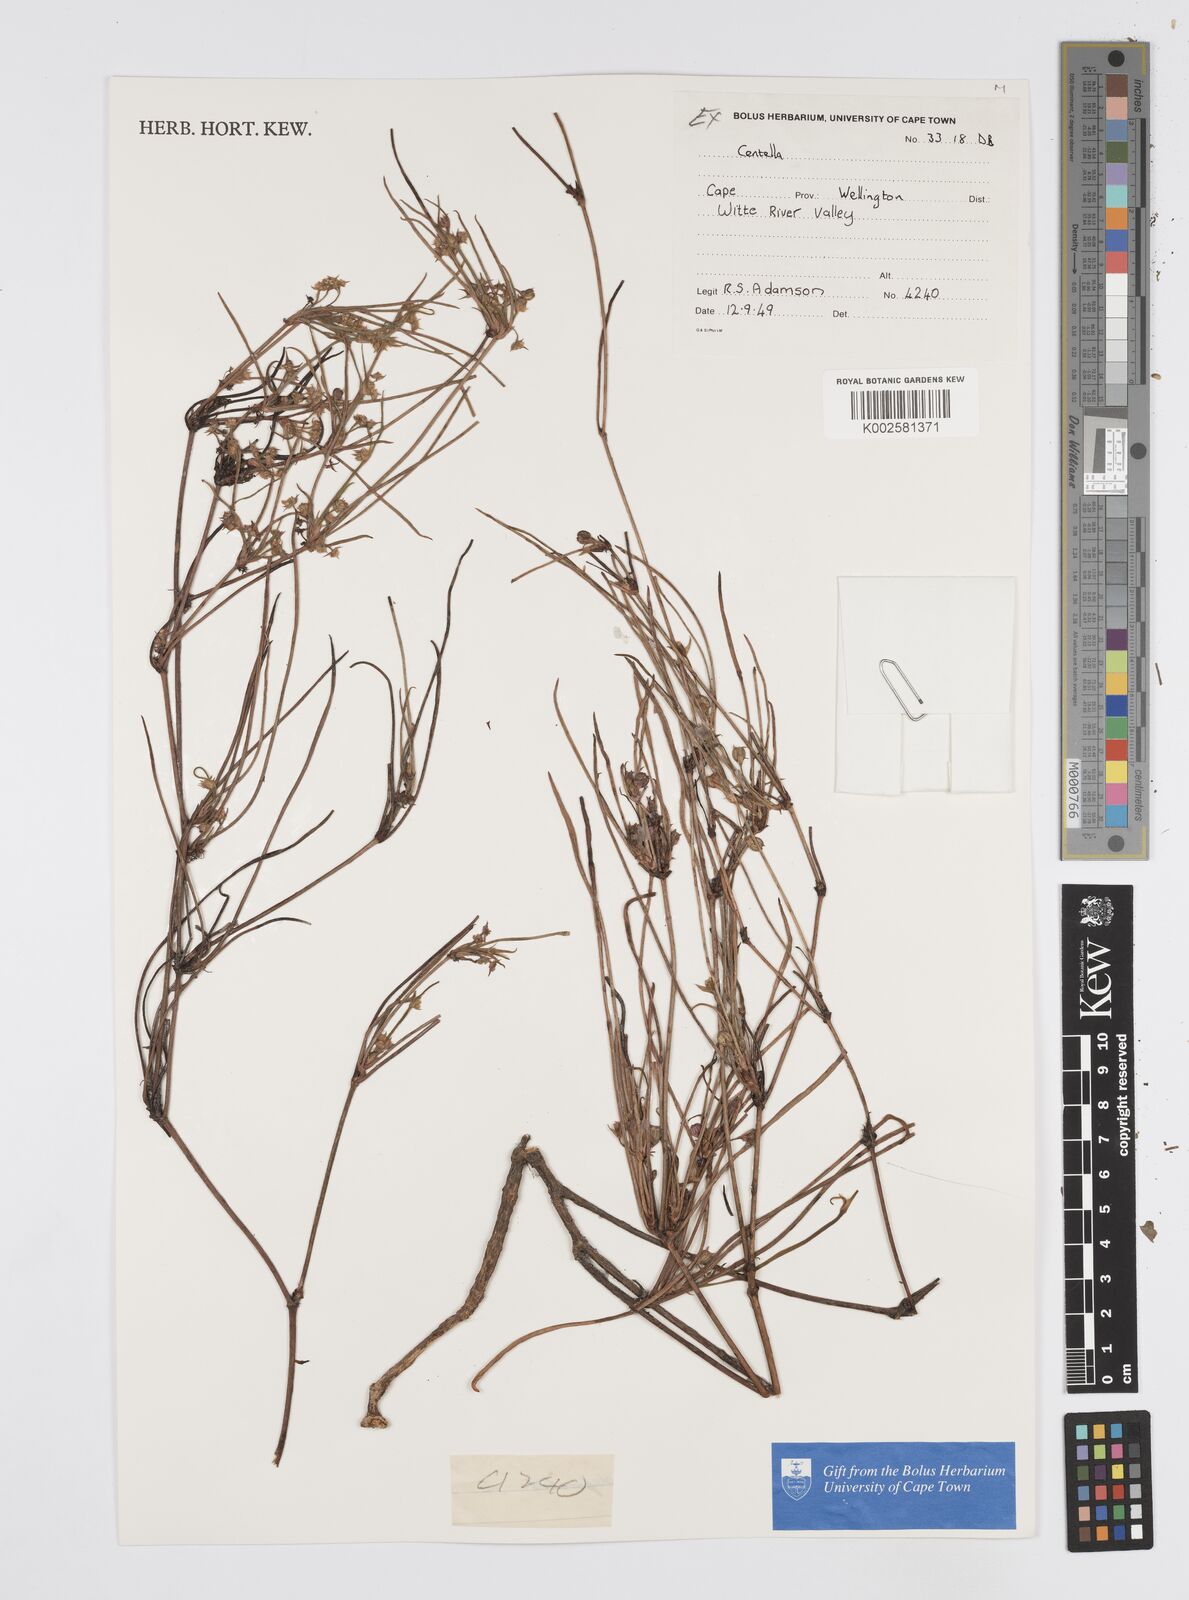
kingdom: Plantae
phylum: Tracheophyta
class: Magnoliopsida
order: Apiales
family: Apiaceae
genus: Centella
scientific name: Centella
